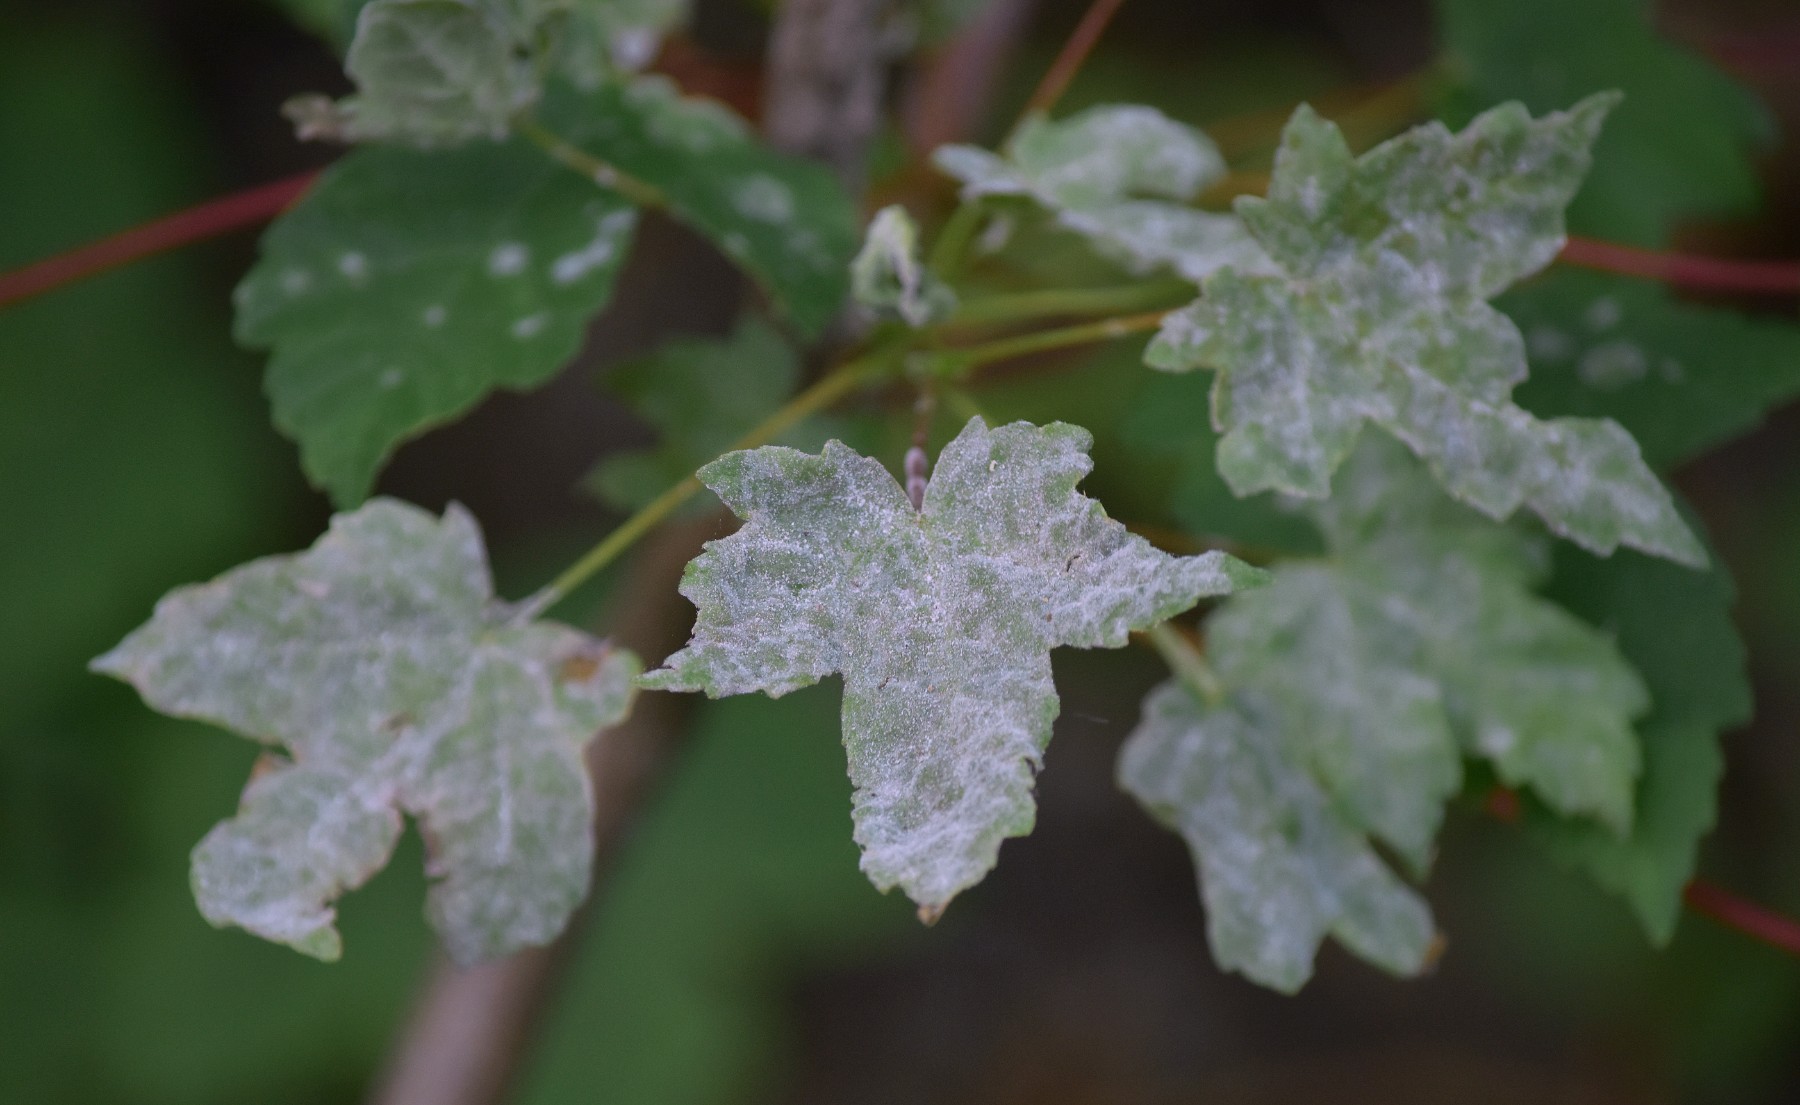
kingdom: Fungi
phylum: Ascomycota
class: Leotiomycetes
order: Helotiales
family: Erysiphaceae
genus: Sawadaea
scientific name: Sawadaea bicornis
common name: Maple mildew
